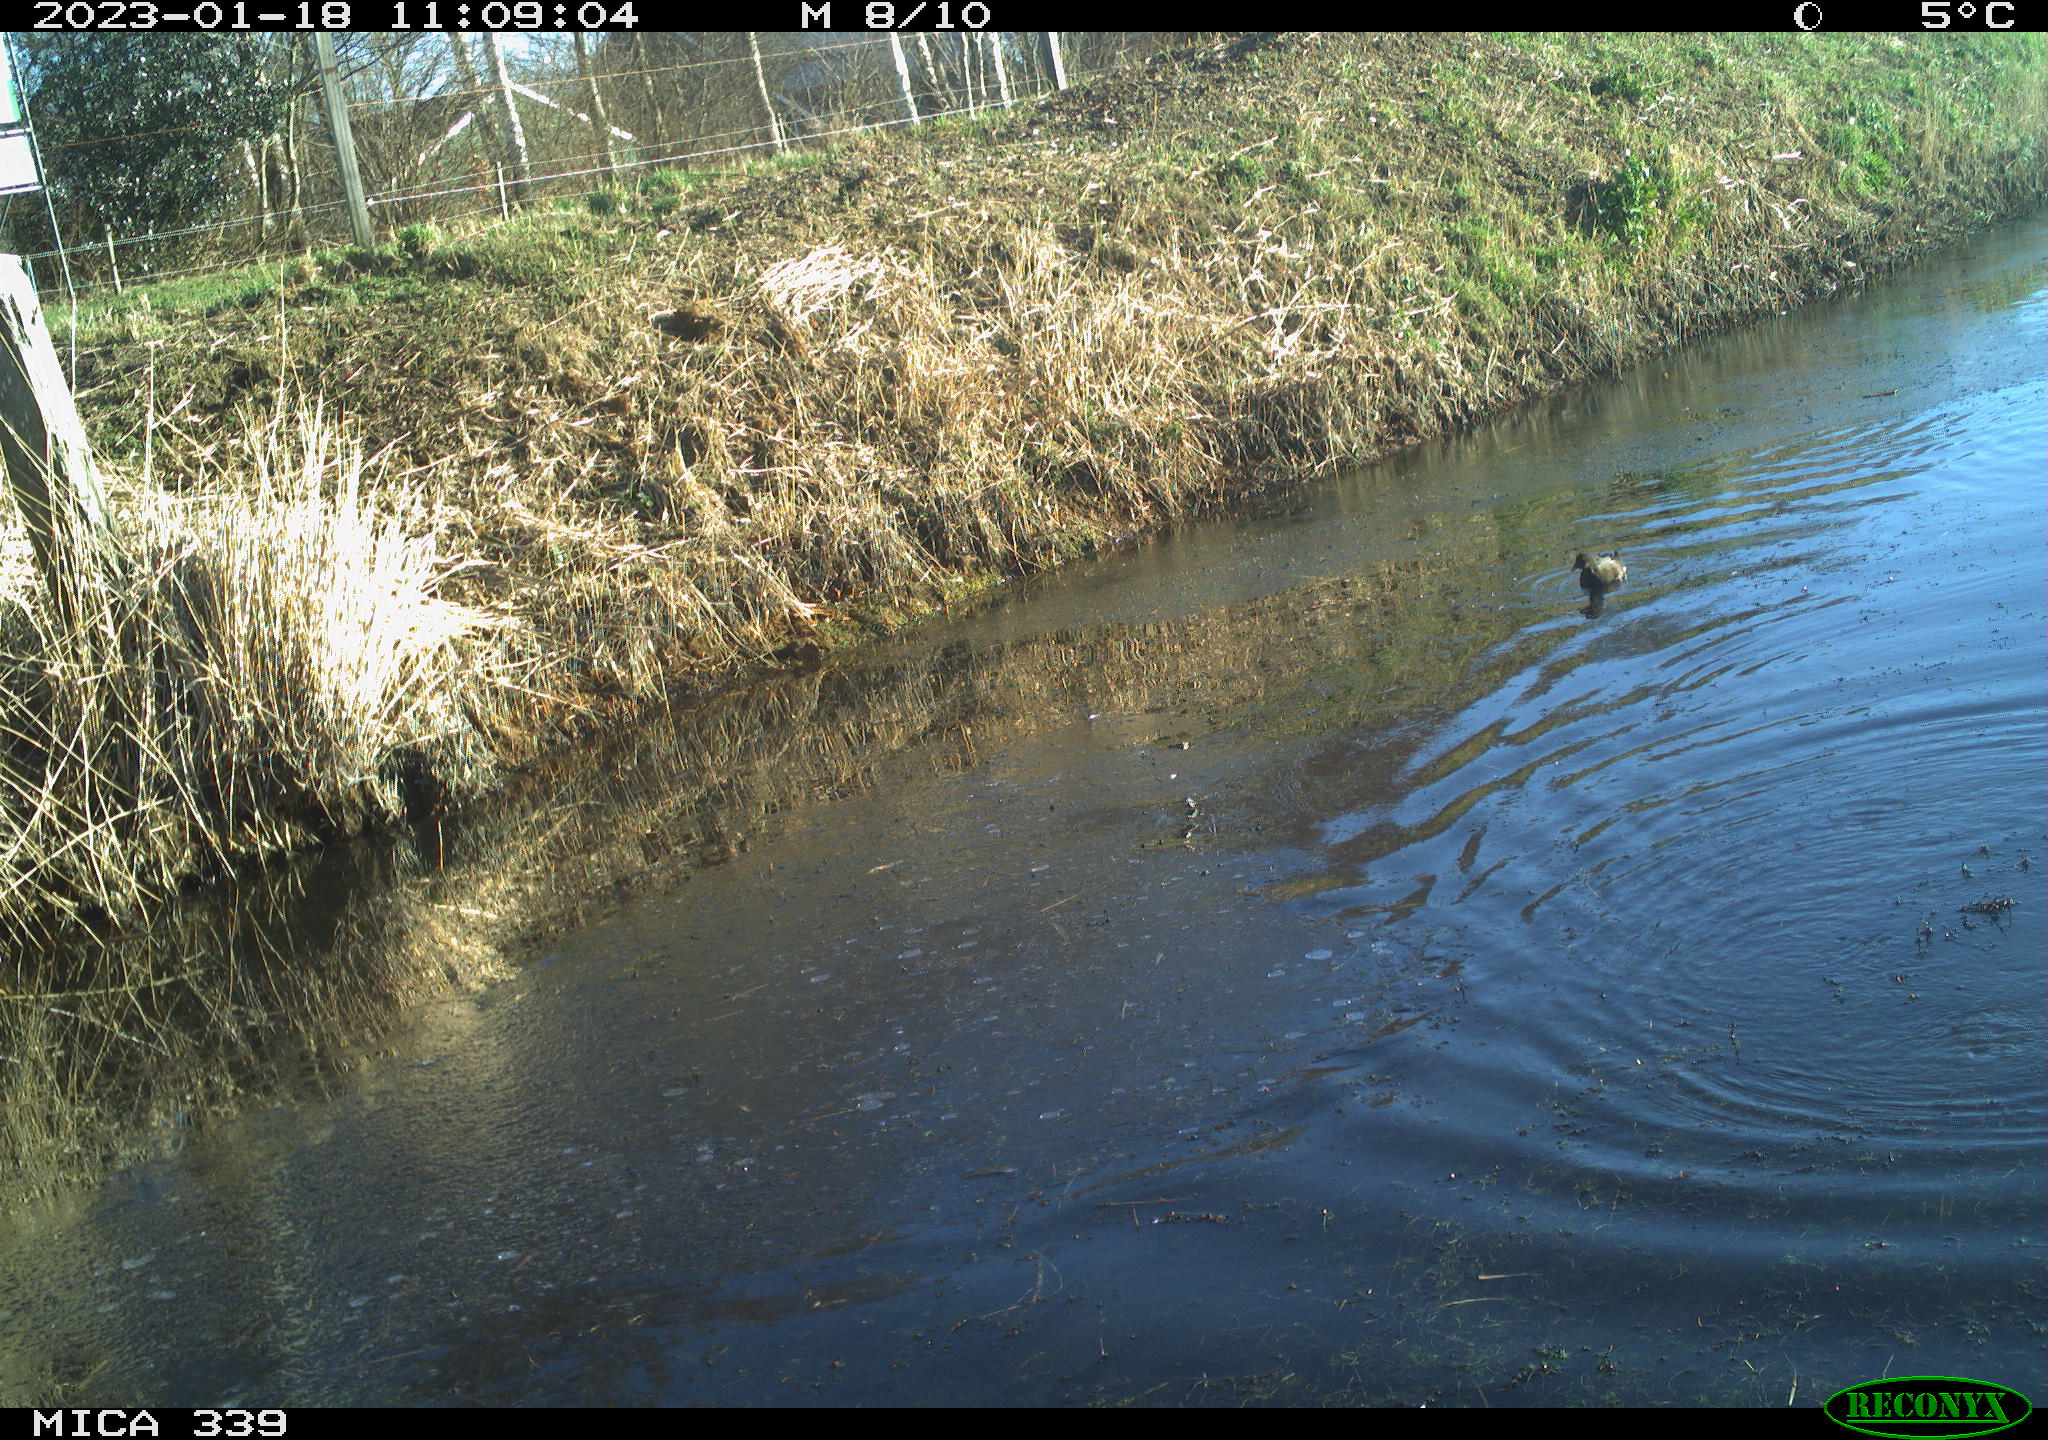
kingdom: Animalia
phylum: Chordata
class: Aves
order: Gruiformes
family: Rallidae
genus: Gallinula
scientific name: Gallinula chloropus
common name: Common moorhen
